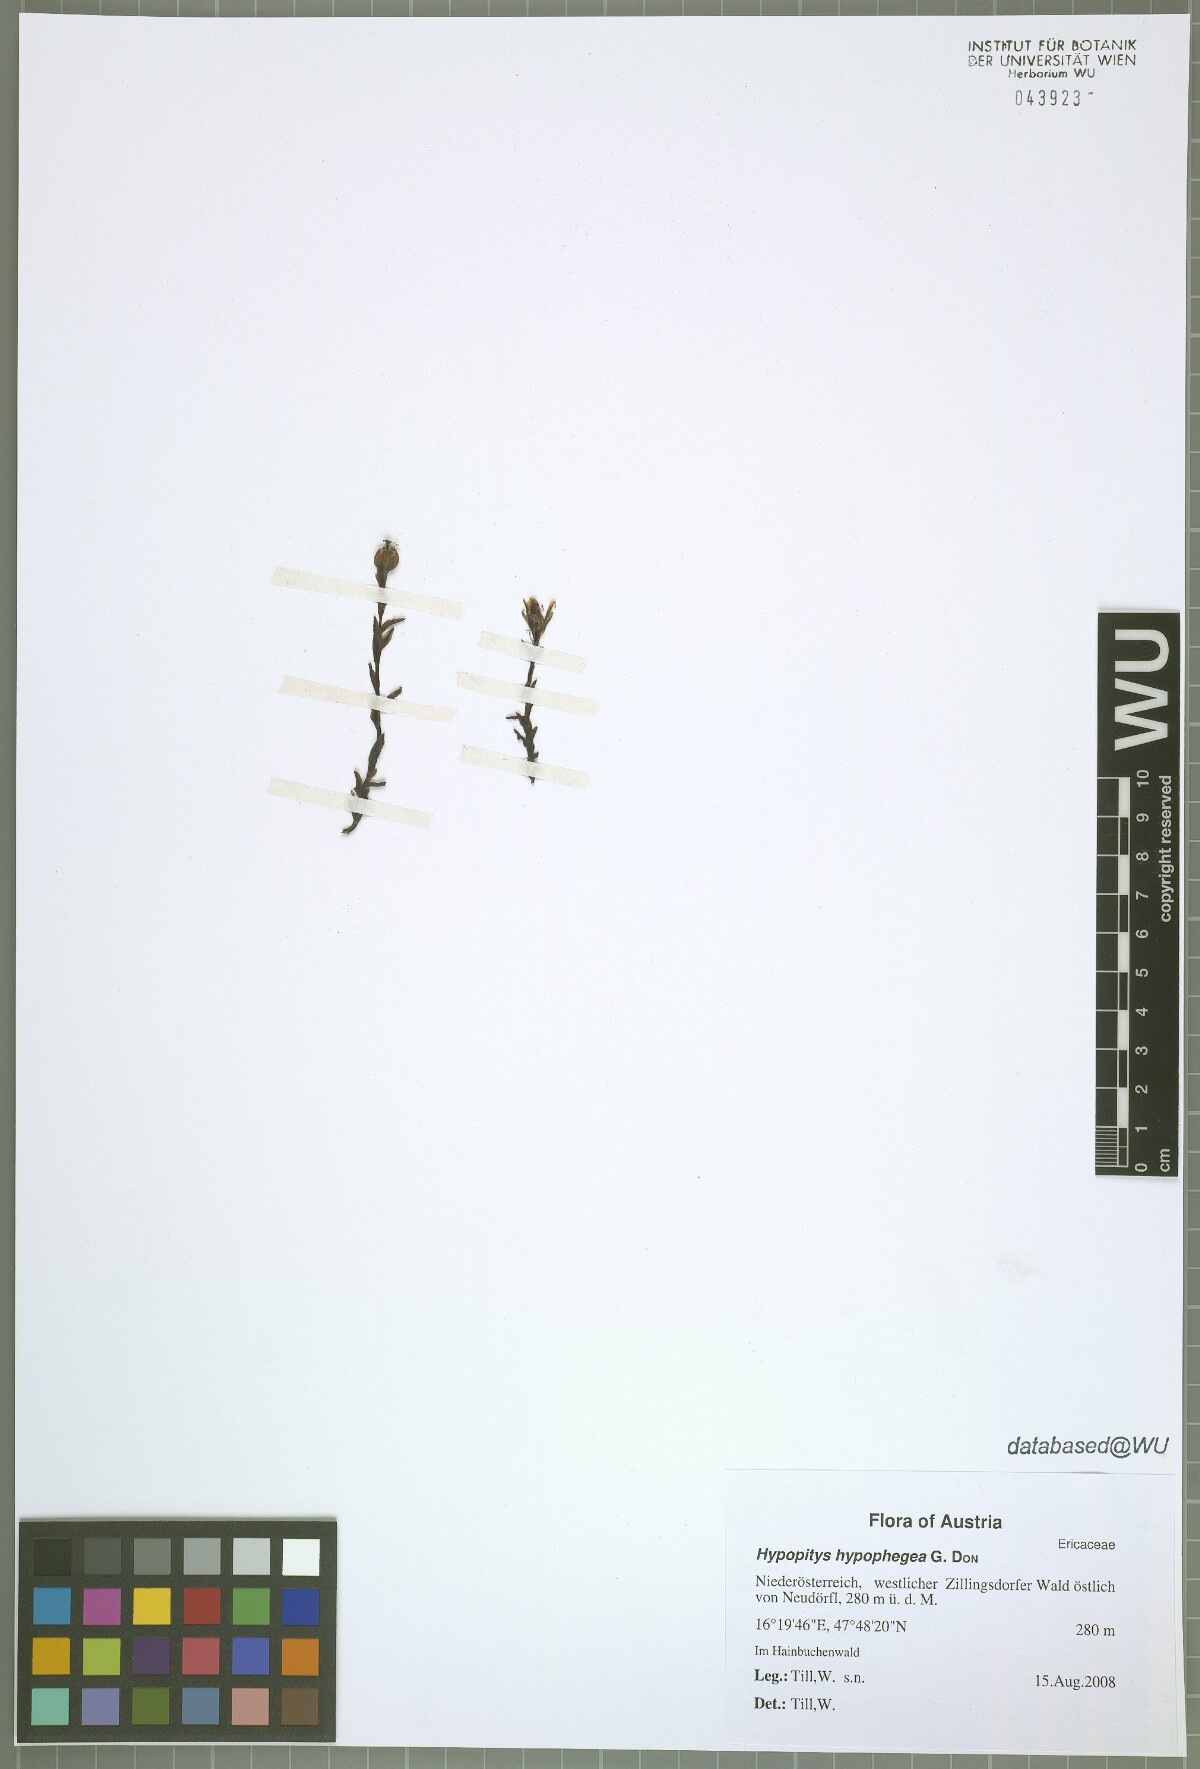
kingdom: Plantae
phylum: Tracheophyta
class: Magnoliopsida
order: Ericales
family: Ericaceae
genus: Hypopitys
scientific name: Hypopitys hypophegea
